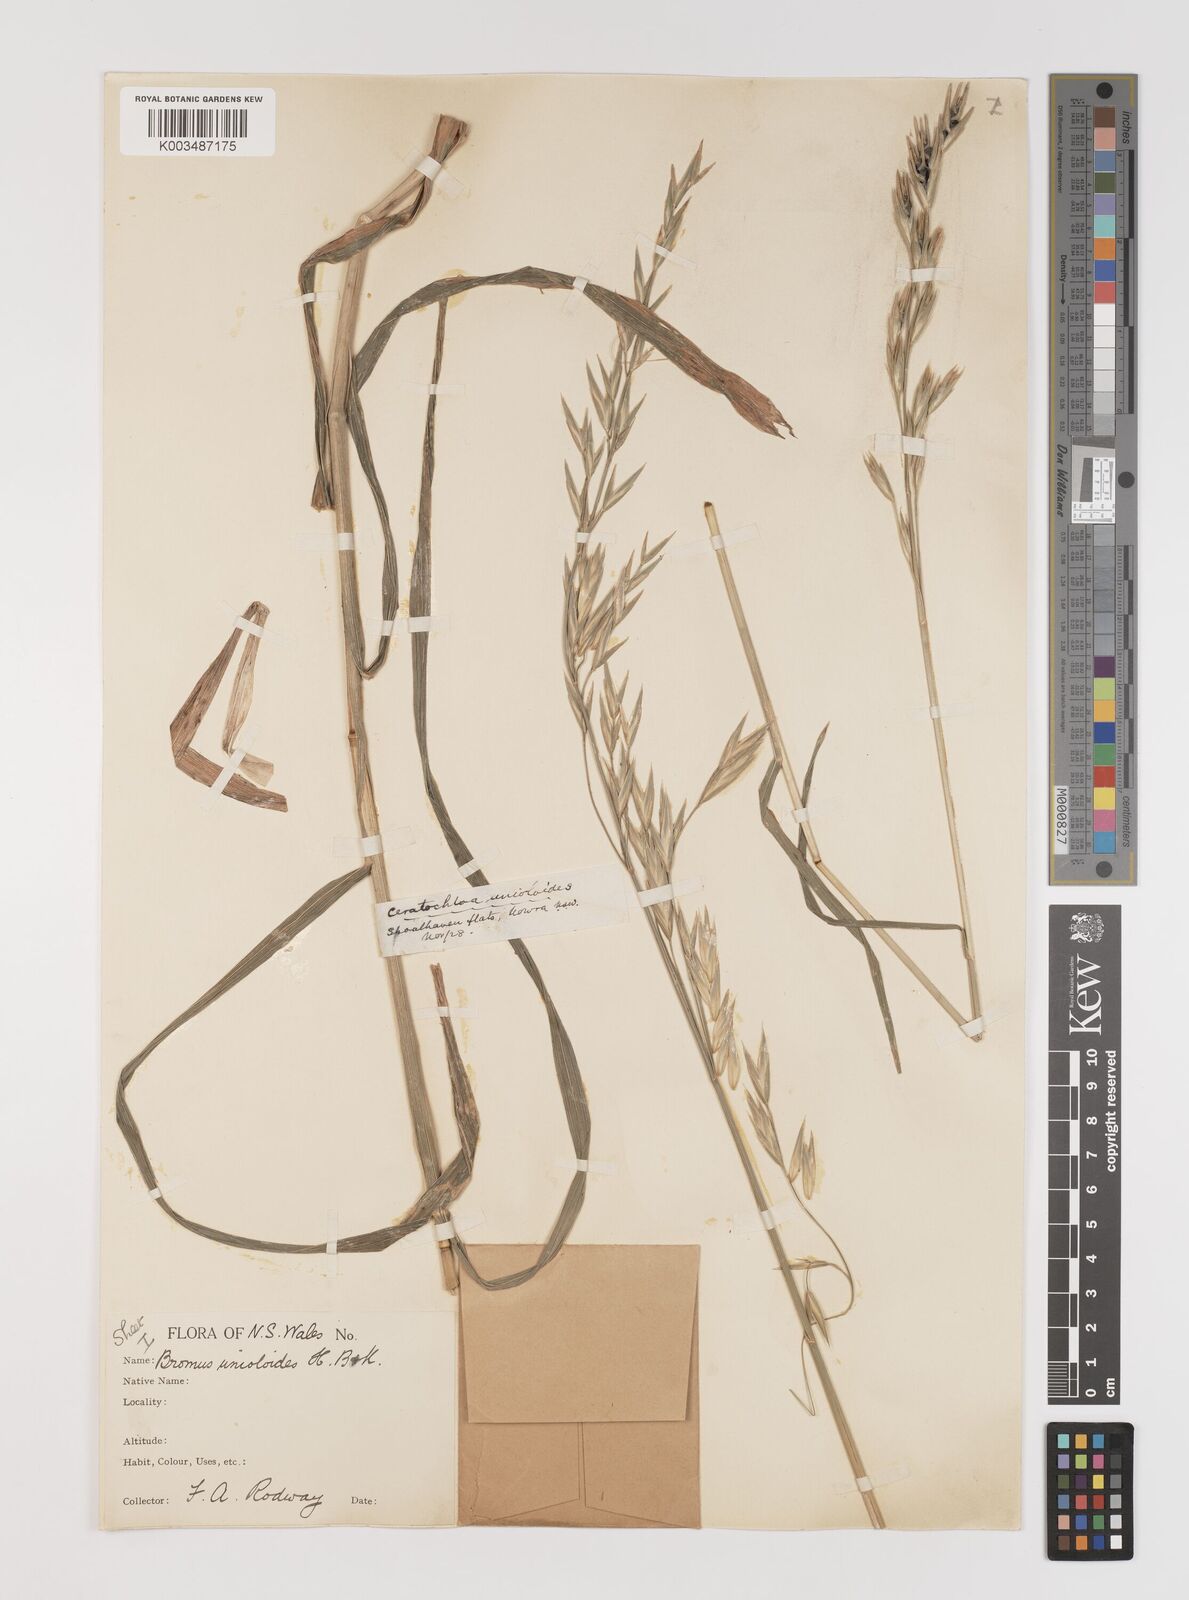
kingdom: Plantae
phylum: Tracheophyta
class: Liliopsida
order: Poales
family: Poaceae
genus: Bromus
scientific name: Bromus catharticus
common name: Rescuegrass
